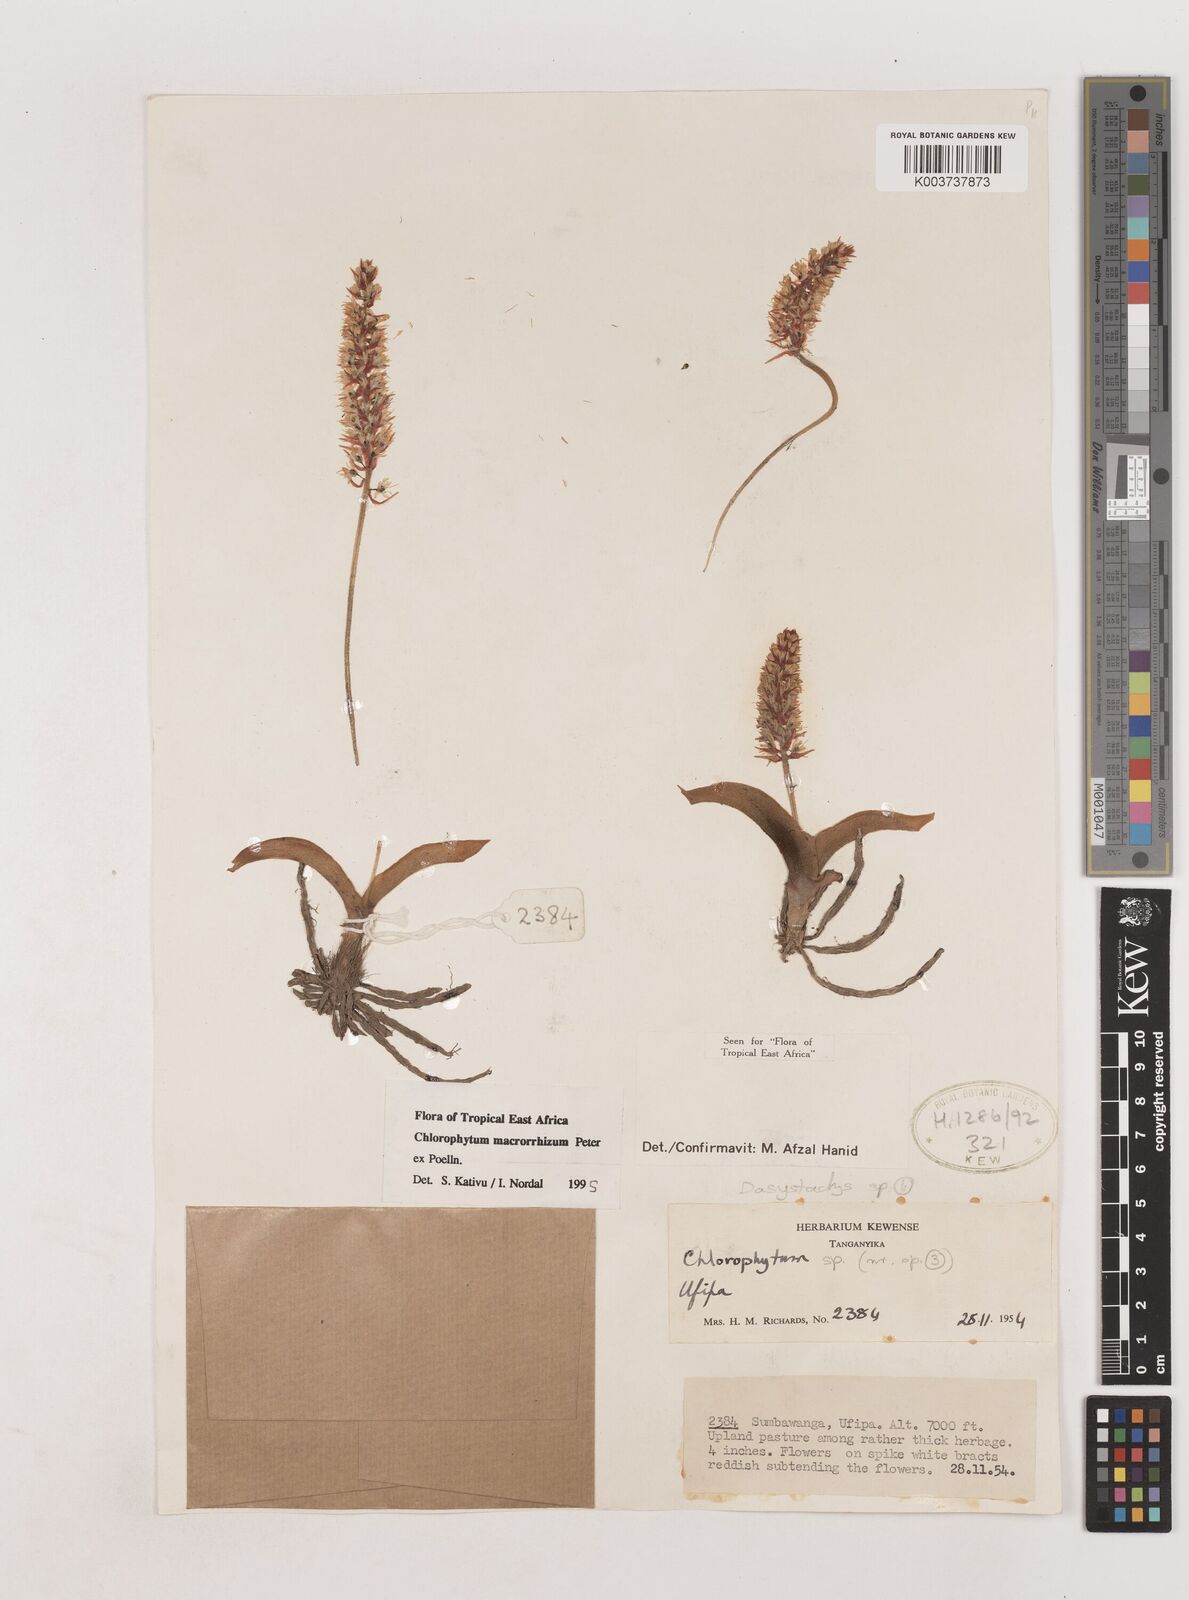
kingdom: Plantae
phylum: Tracheophyta
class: Liliopsida
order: Asparagales
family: Asparagaceae
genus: Chlorophytum
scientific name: Chlorophytum macrorrhizum
